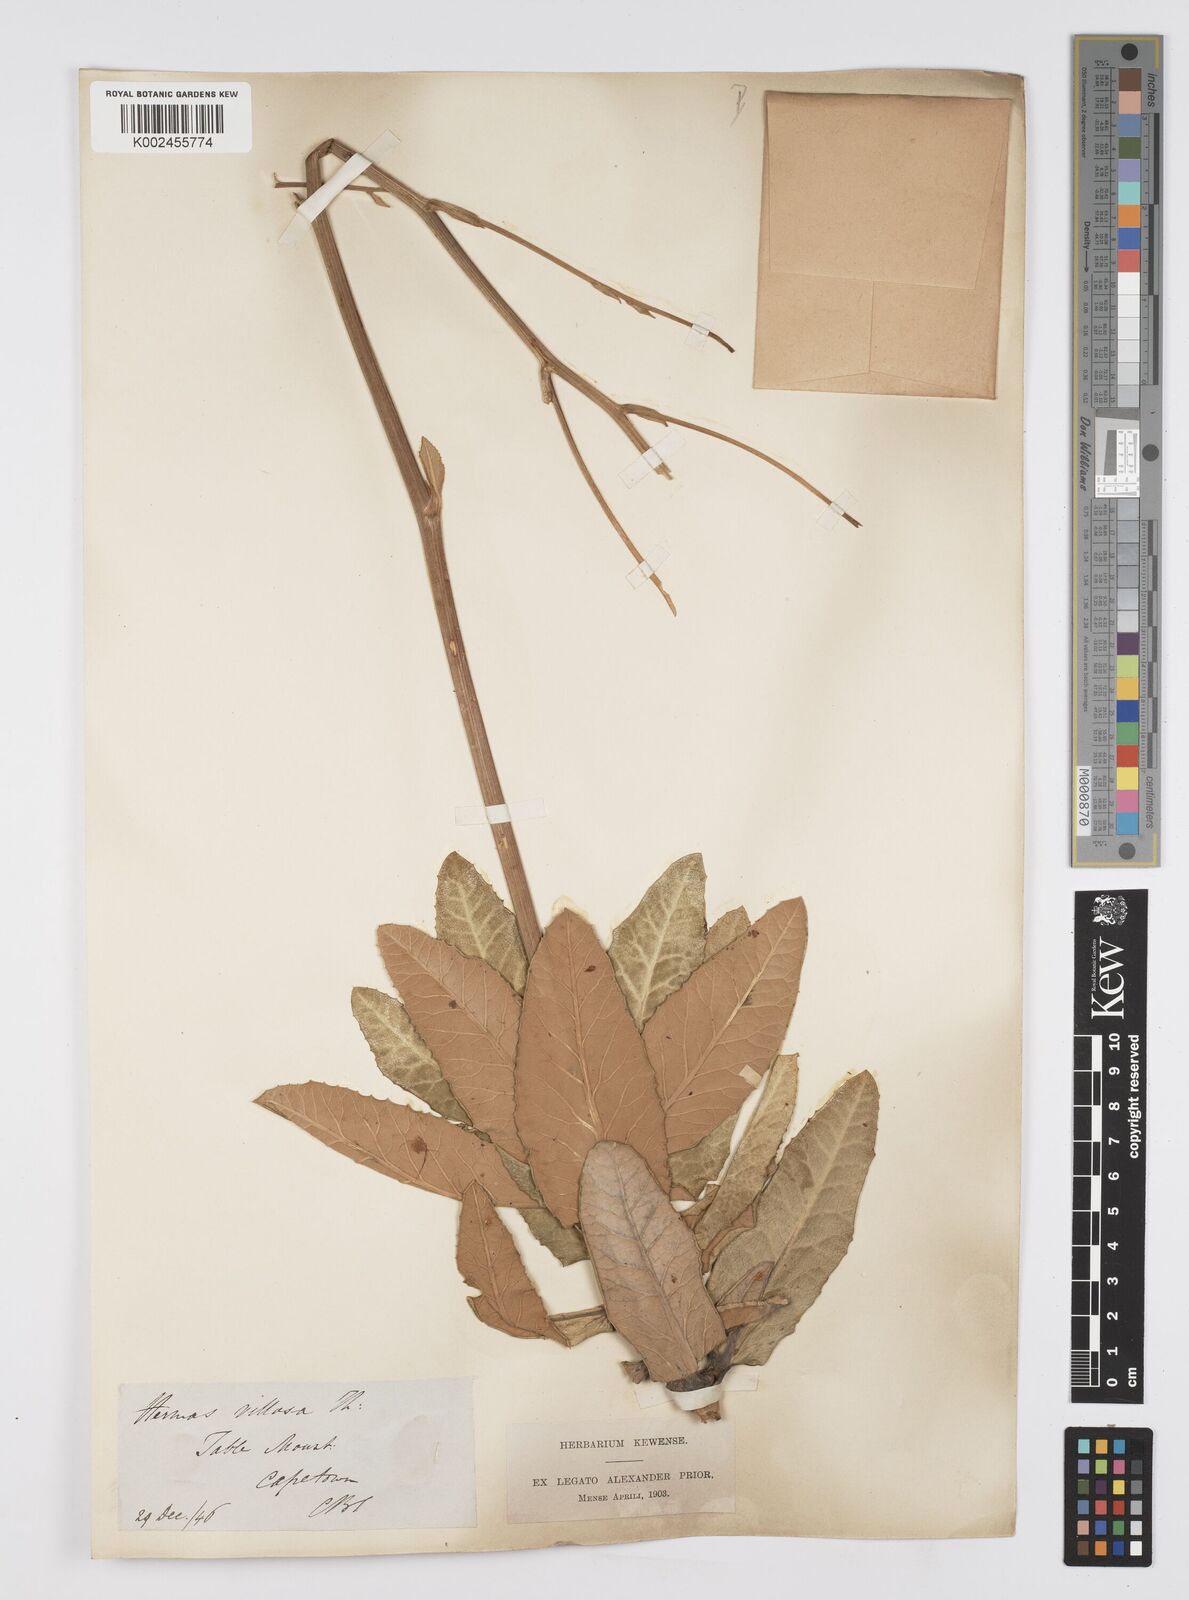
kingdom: Plantae
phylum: Tracheophyta
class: Magnoliopsida
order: Apiales
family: Apiaceae
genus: Hermas
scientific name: Hermas villosa
